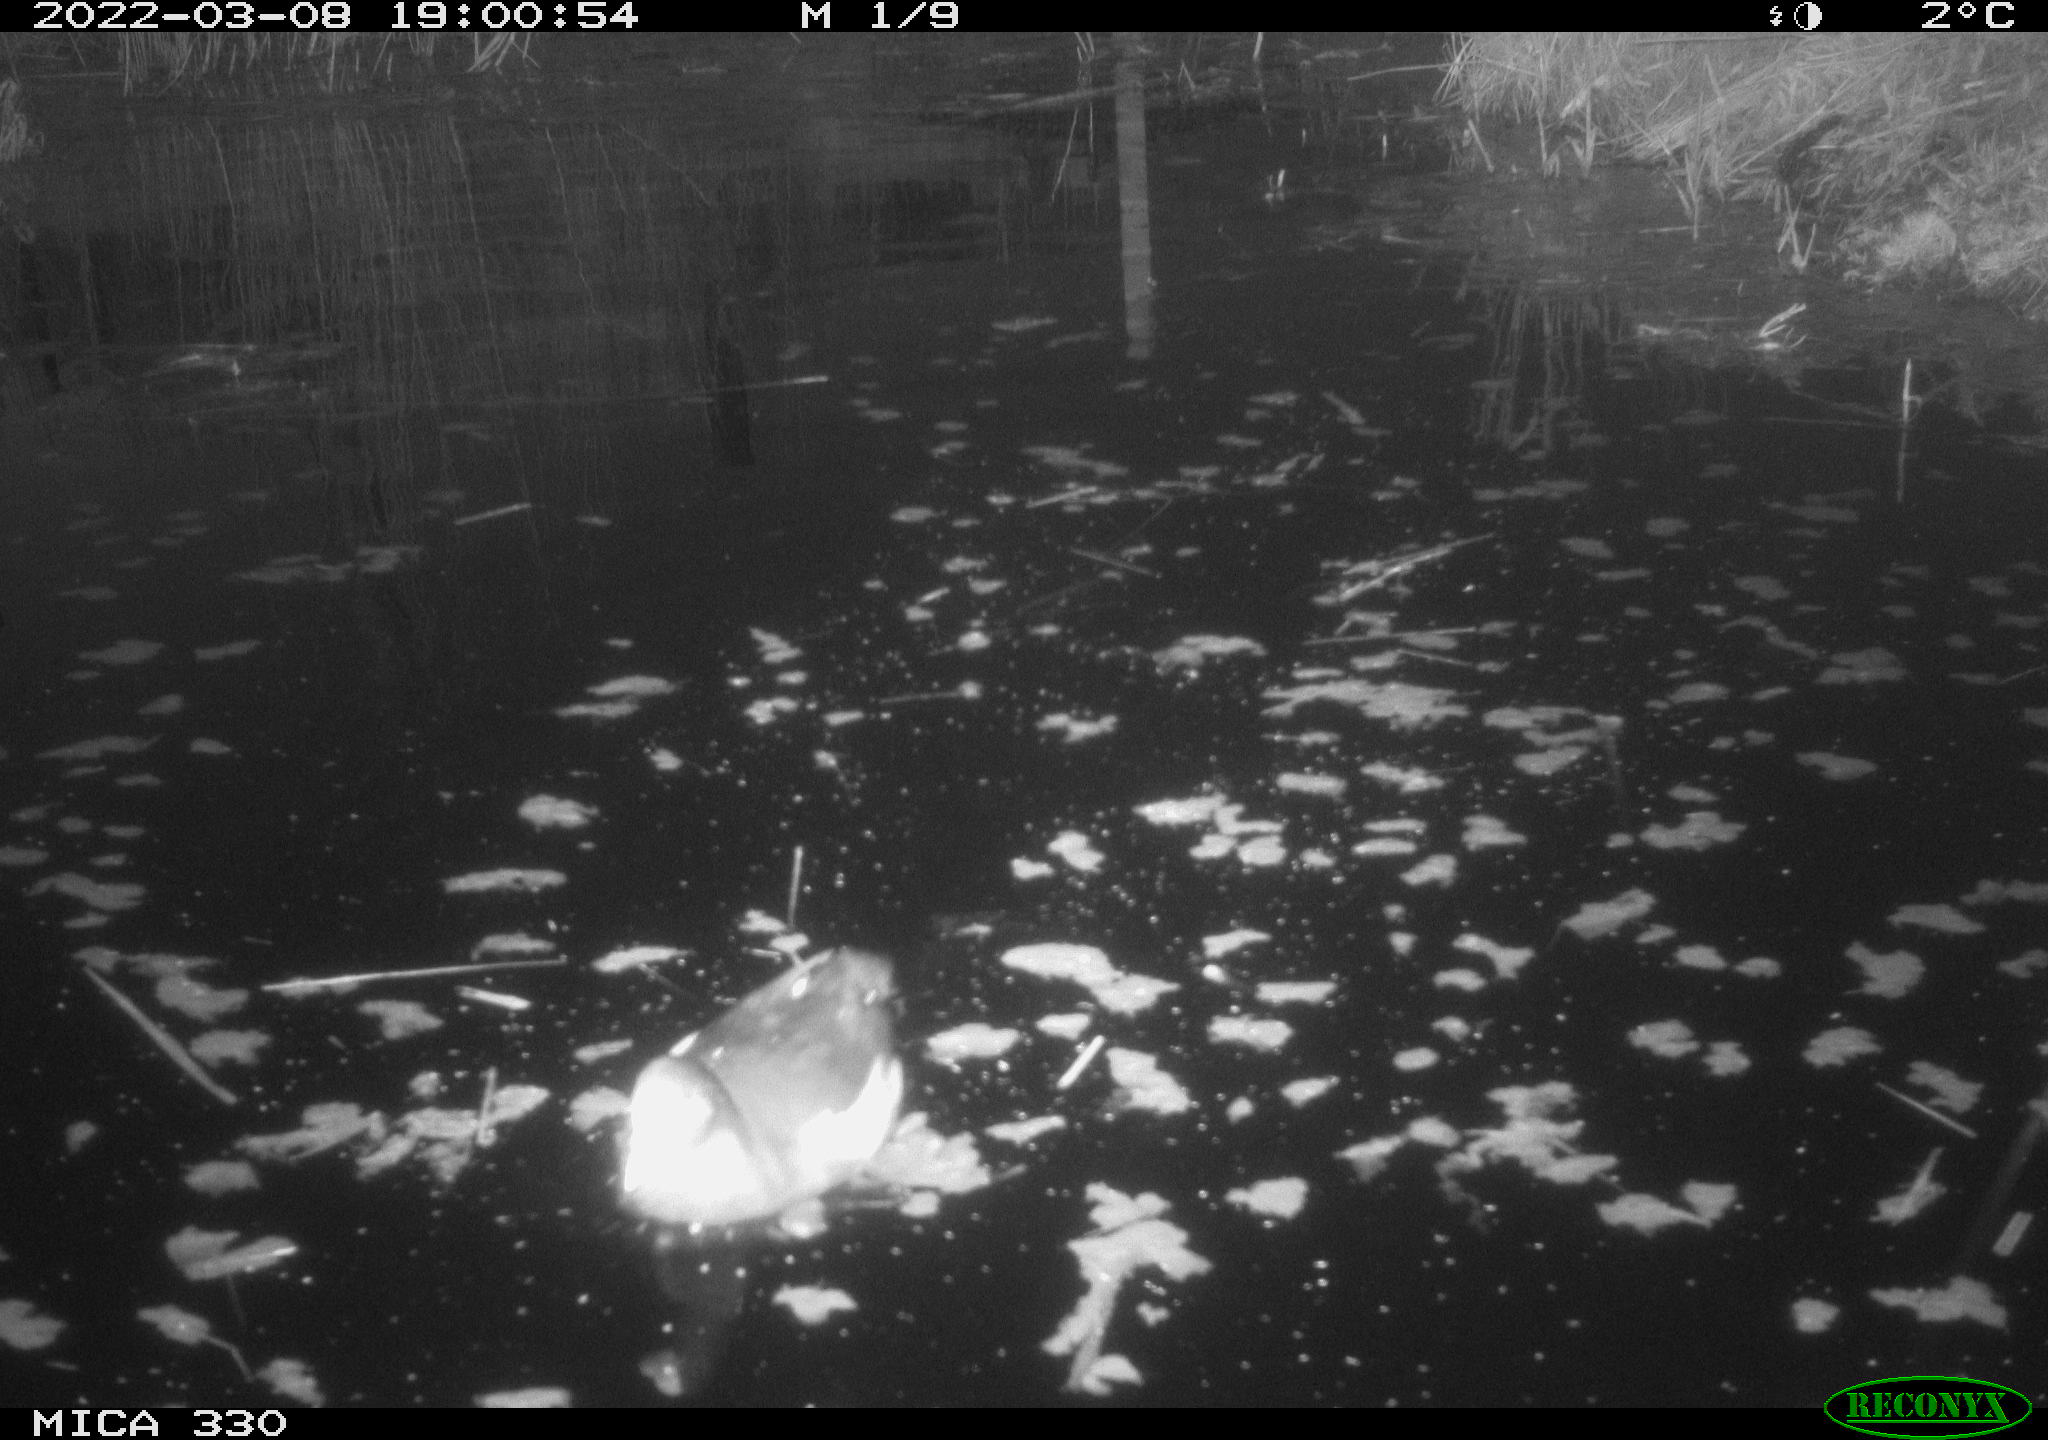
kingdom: Animalia
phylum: Chordata
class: Aves
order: Gruiformes
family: Rallidae
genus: Gallinula
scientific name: Gallinula chloropus
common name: Common moorhen
